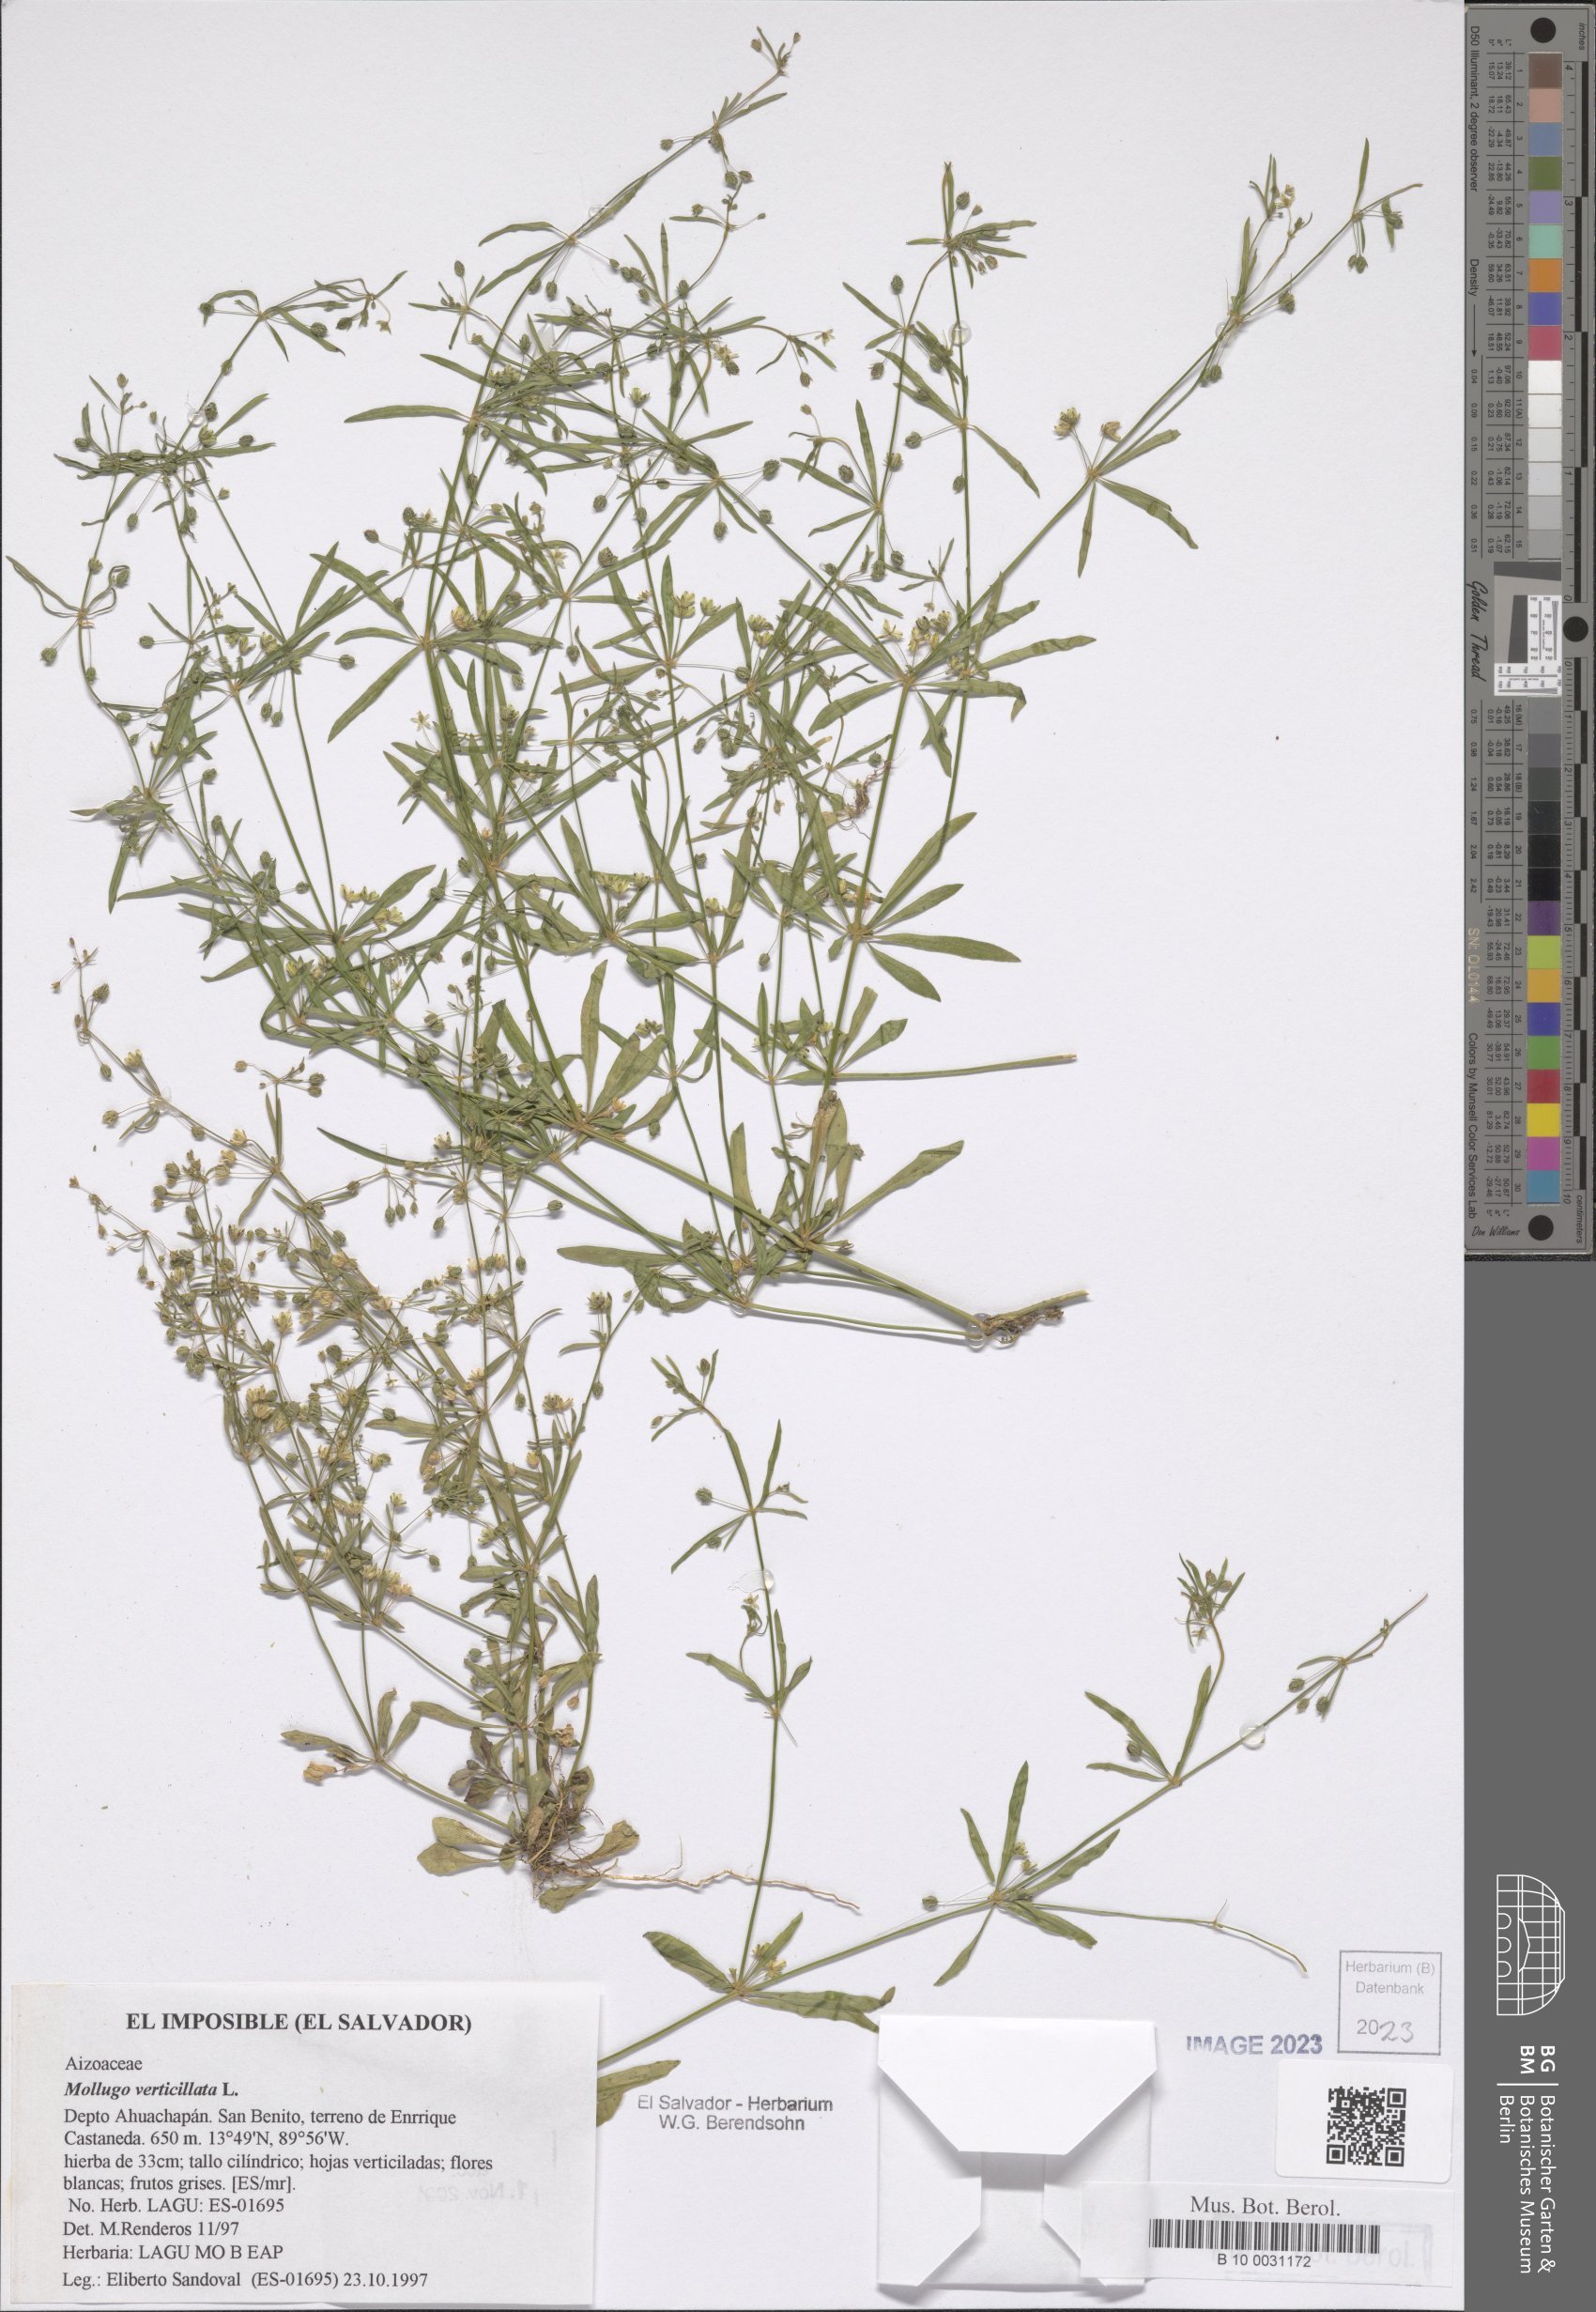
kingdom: Plantae
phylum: Tracheophyta
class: Magnoliopsida
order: Caryophyllales
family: Molluginaceae
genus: Mollugo
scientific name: Mollugo verticillata
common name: Green carpetweed
